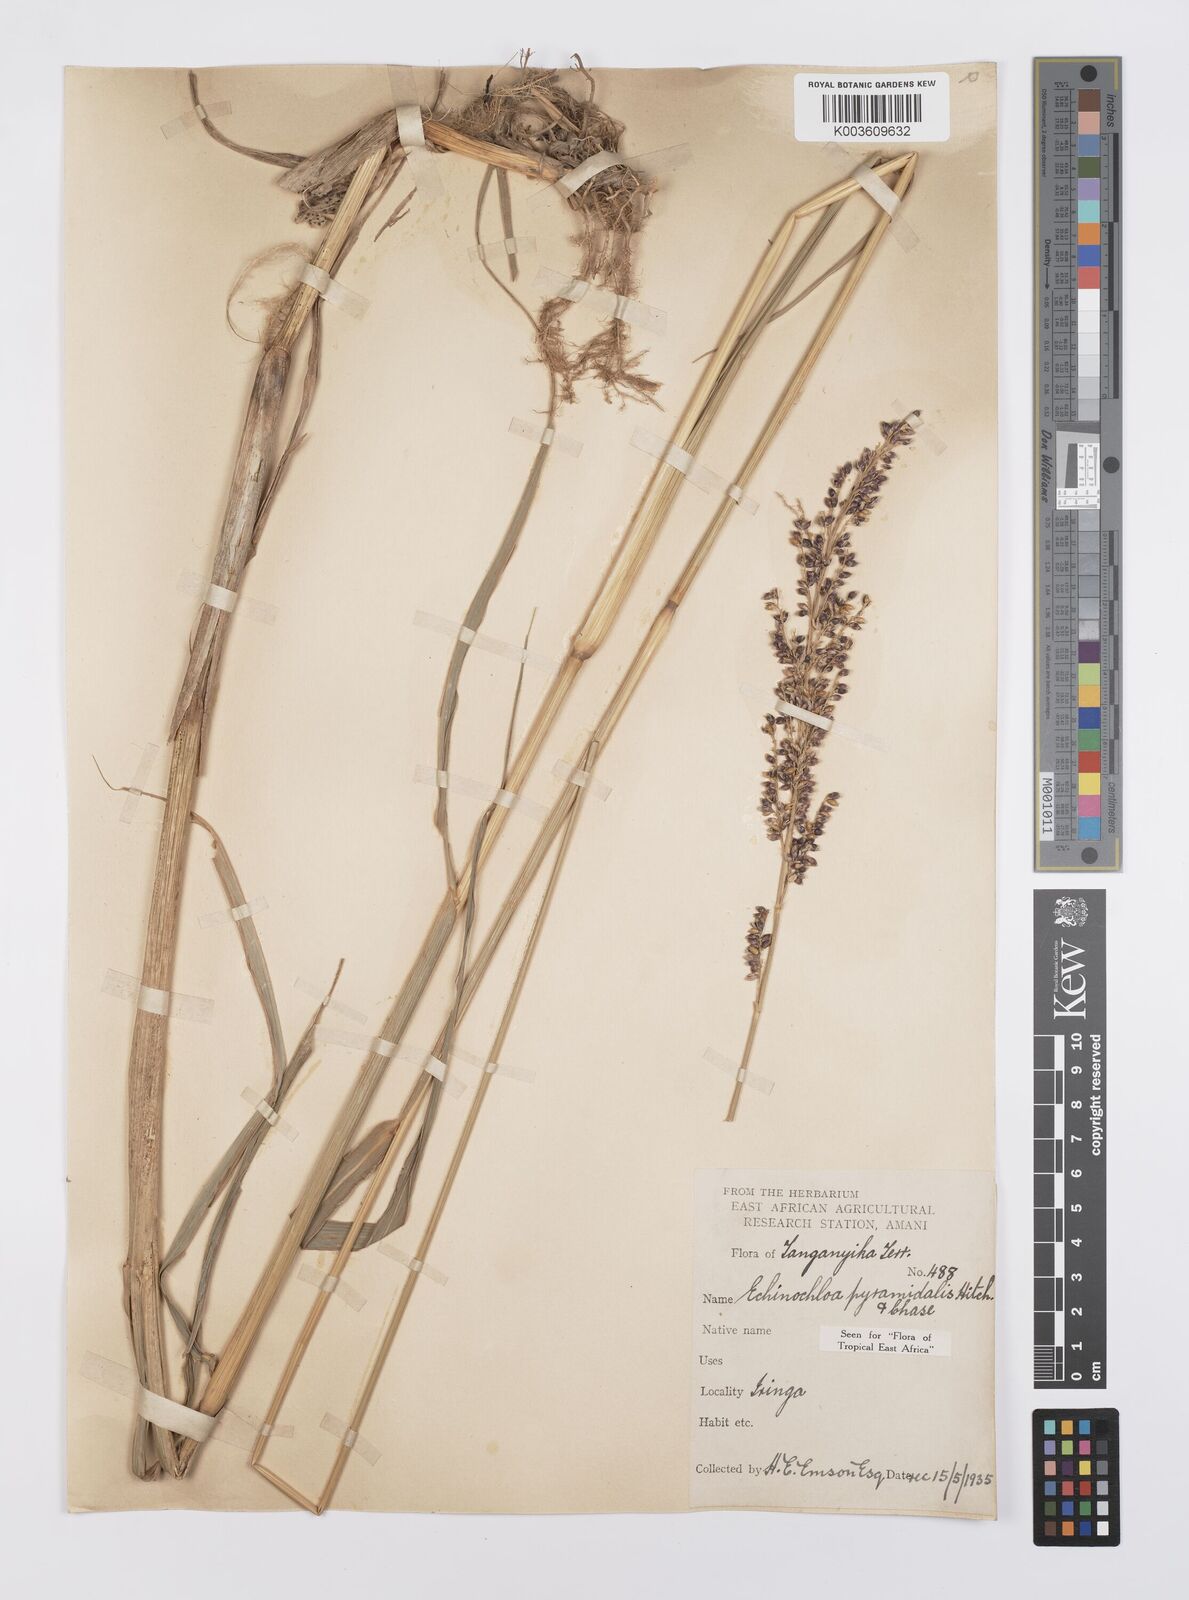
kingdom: Plantae
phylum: Tracheophyta
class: Liliopsida
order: Poales
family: Poaceae
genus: Echinochloa
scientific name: Echinochloa pyramidalis
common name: Antelope grass
